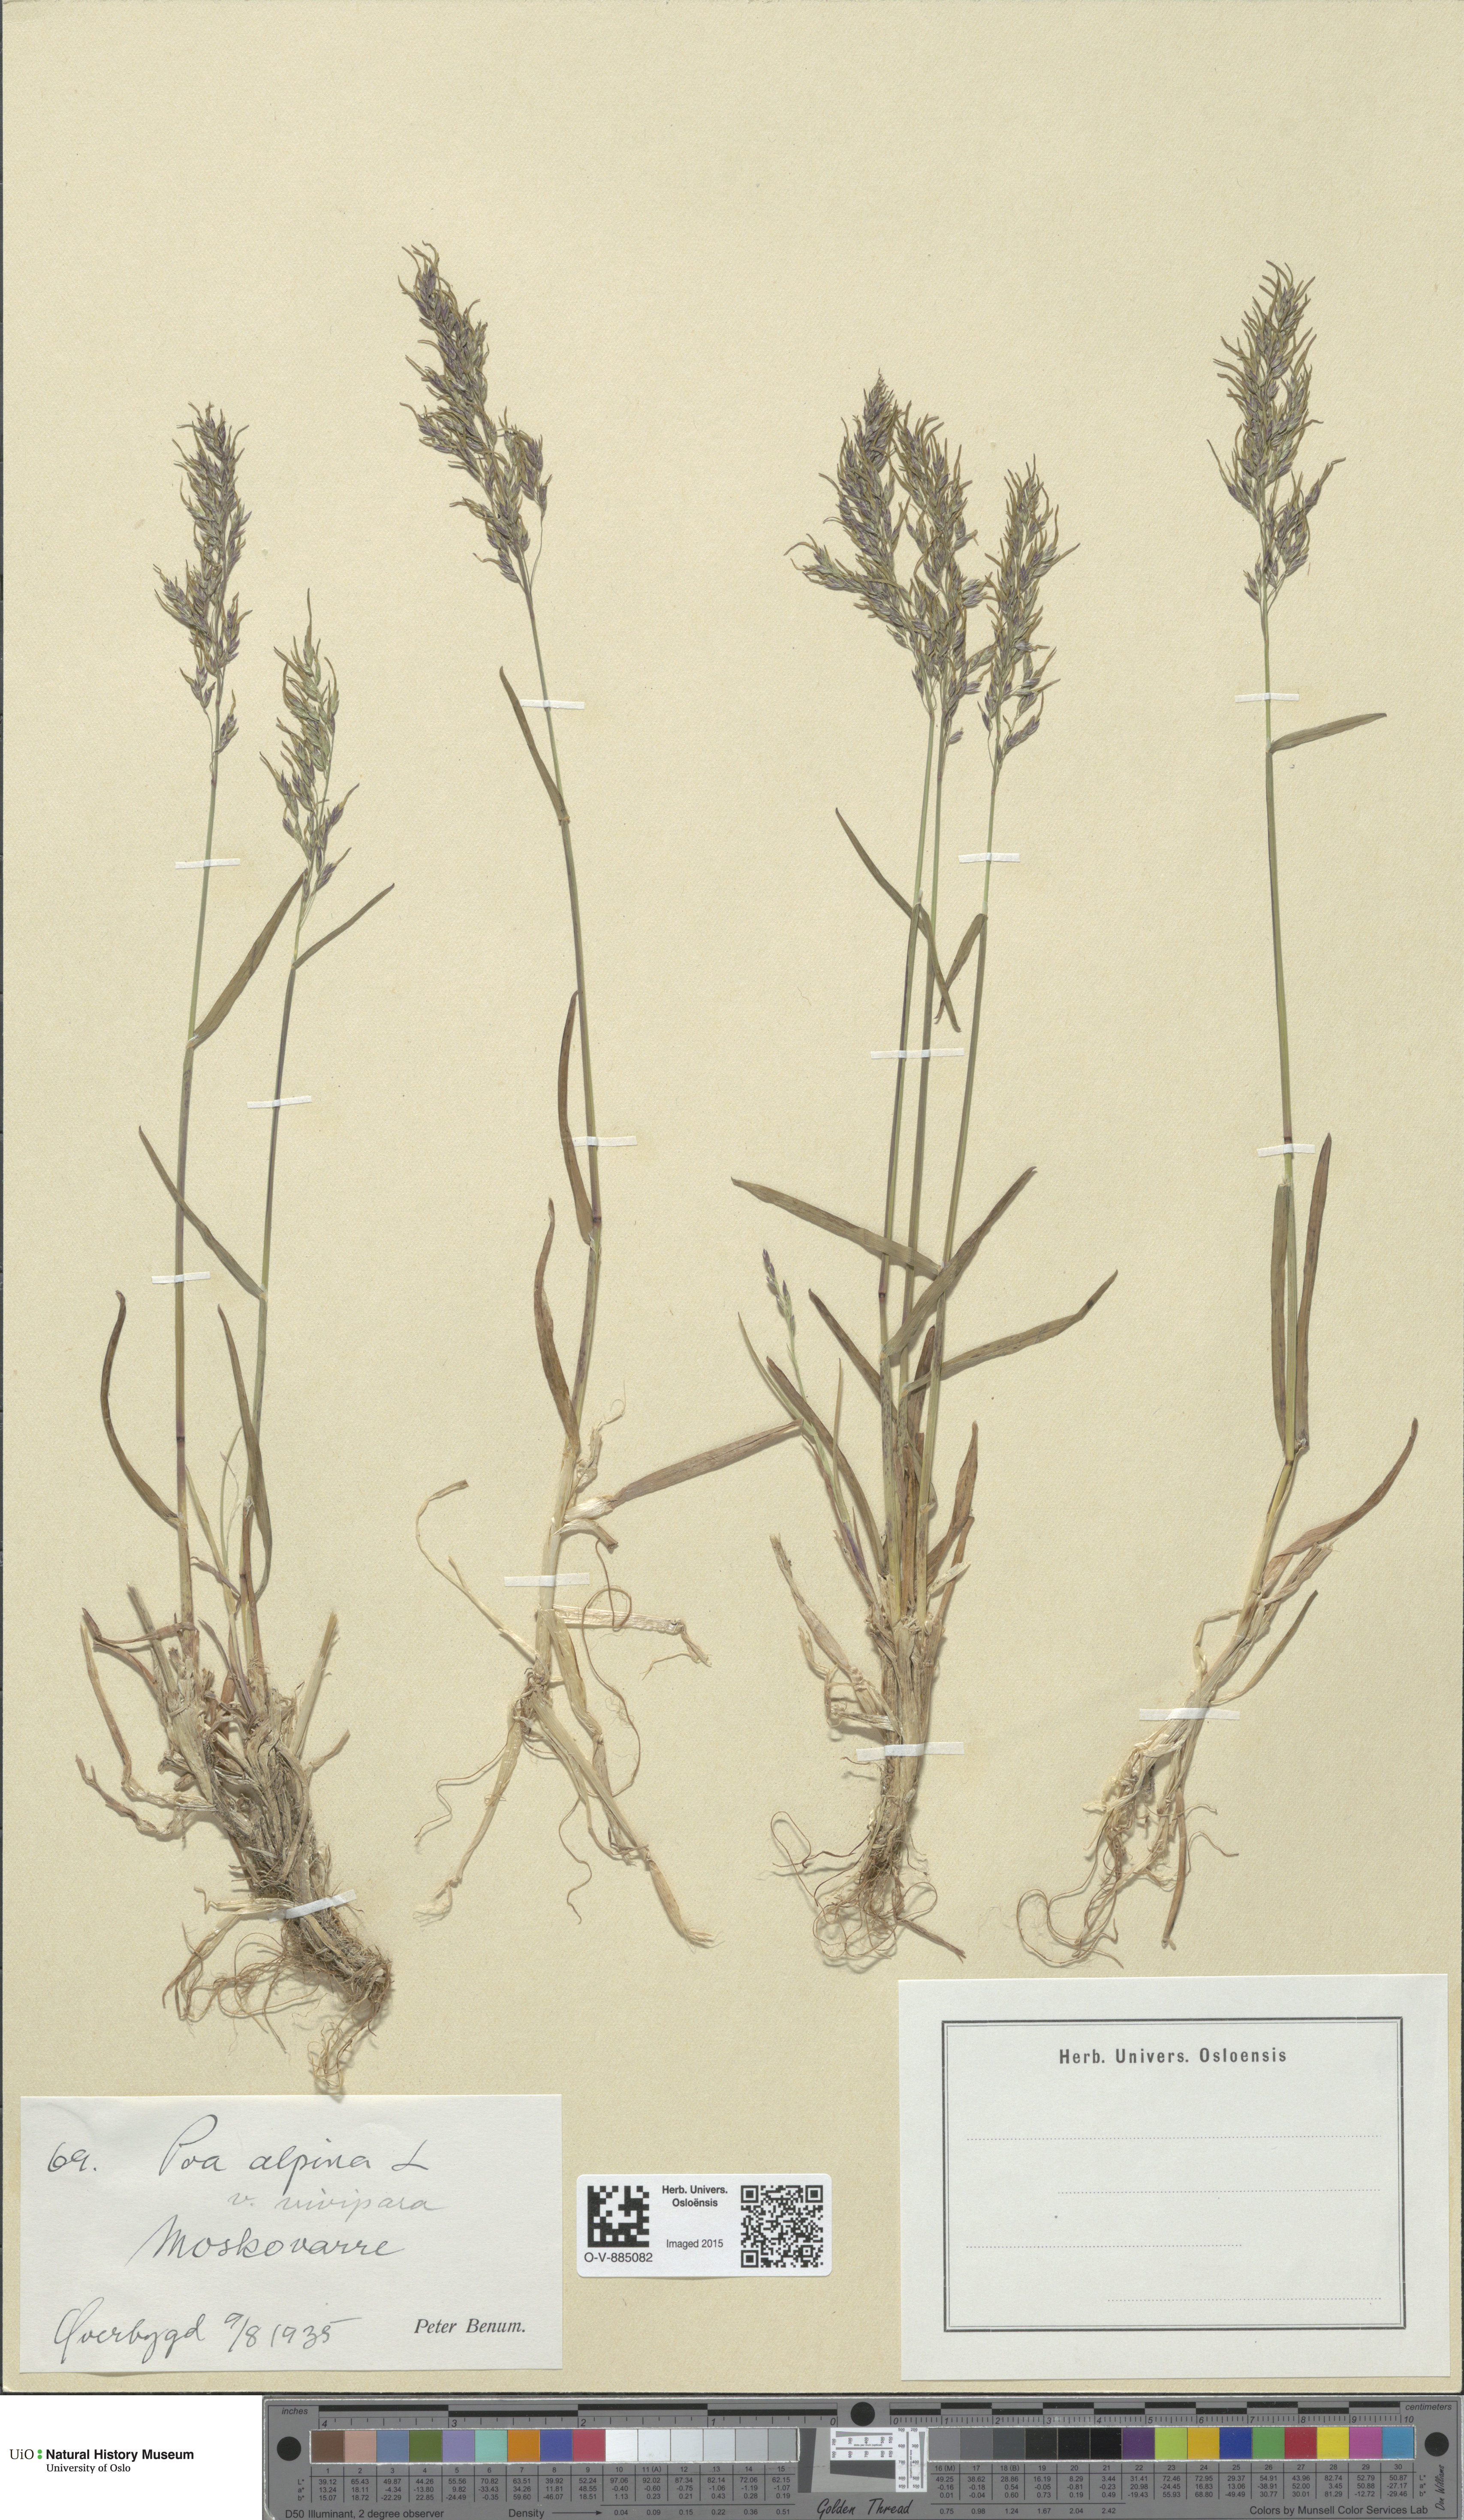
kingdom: Plantae
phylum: Tracheophyta
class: Liliopsida
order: Poales
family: Poaceae
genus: Poa
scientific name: Poa alpina
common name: Alpine bluegrass
